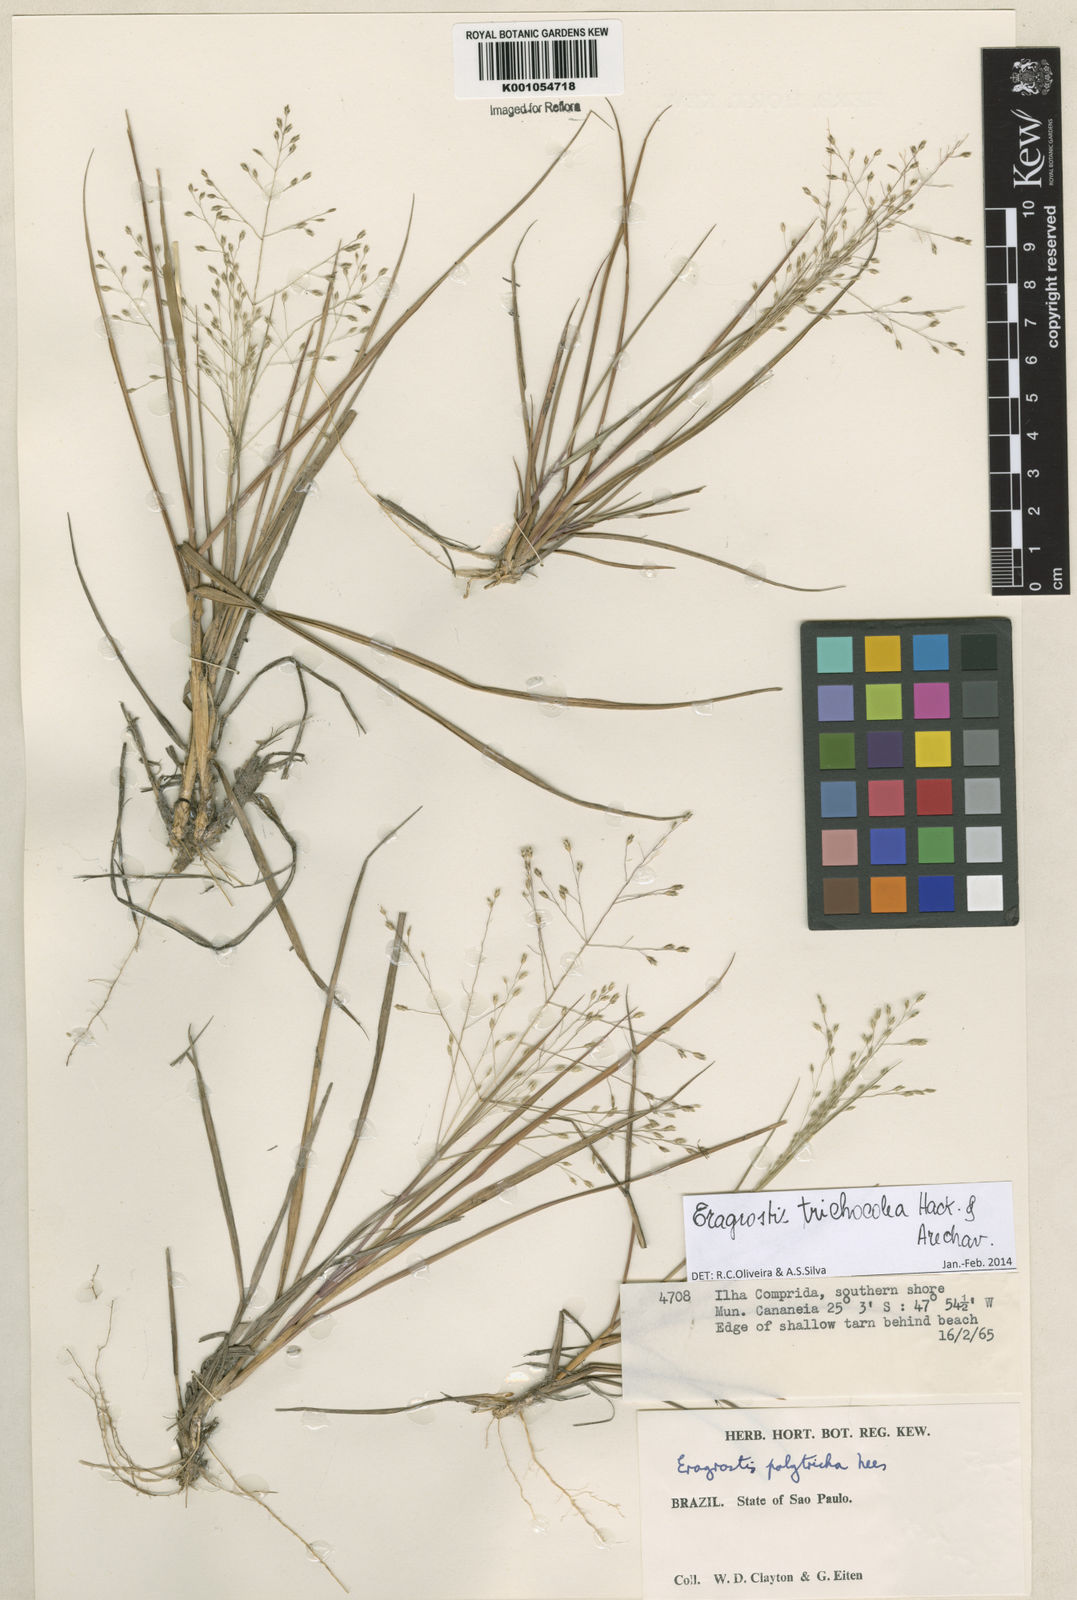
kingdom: Plantae
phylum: Tracheophyta
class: Liliopsida
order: Poales
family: Poaceae
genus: Eragrostis
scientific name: Eragrostis trichocolea
